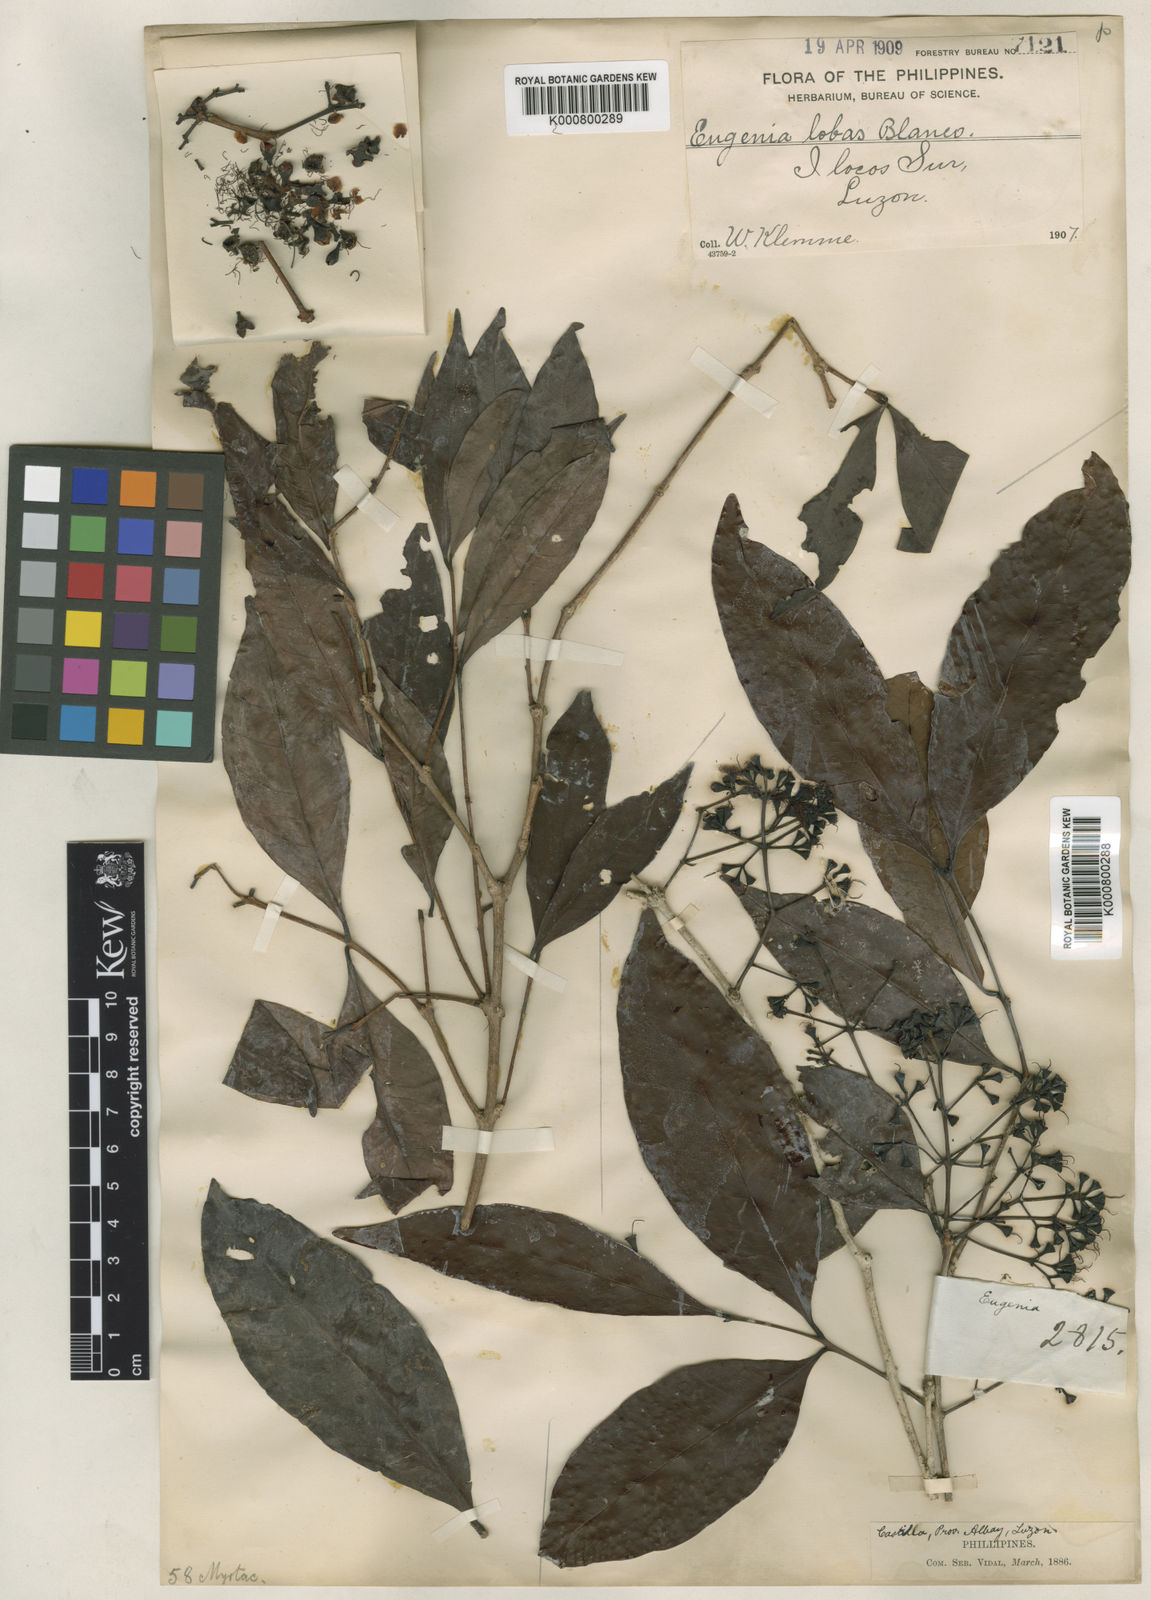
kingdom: Plantae
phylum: Tracheophyta
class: Magnoliopsida
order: Myrtales
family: Myrtaceae
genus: Syzygium
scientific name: Syzygium mananquil
